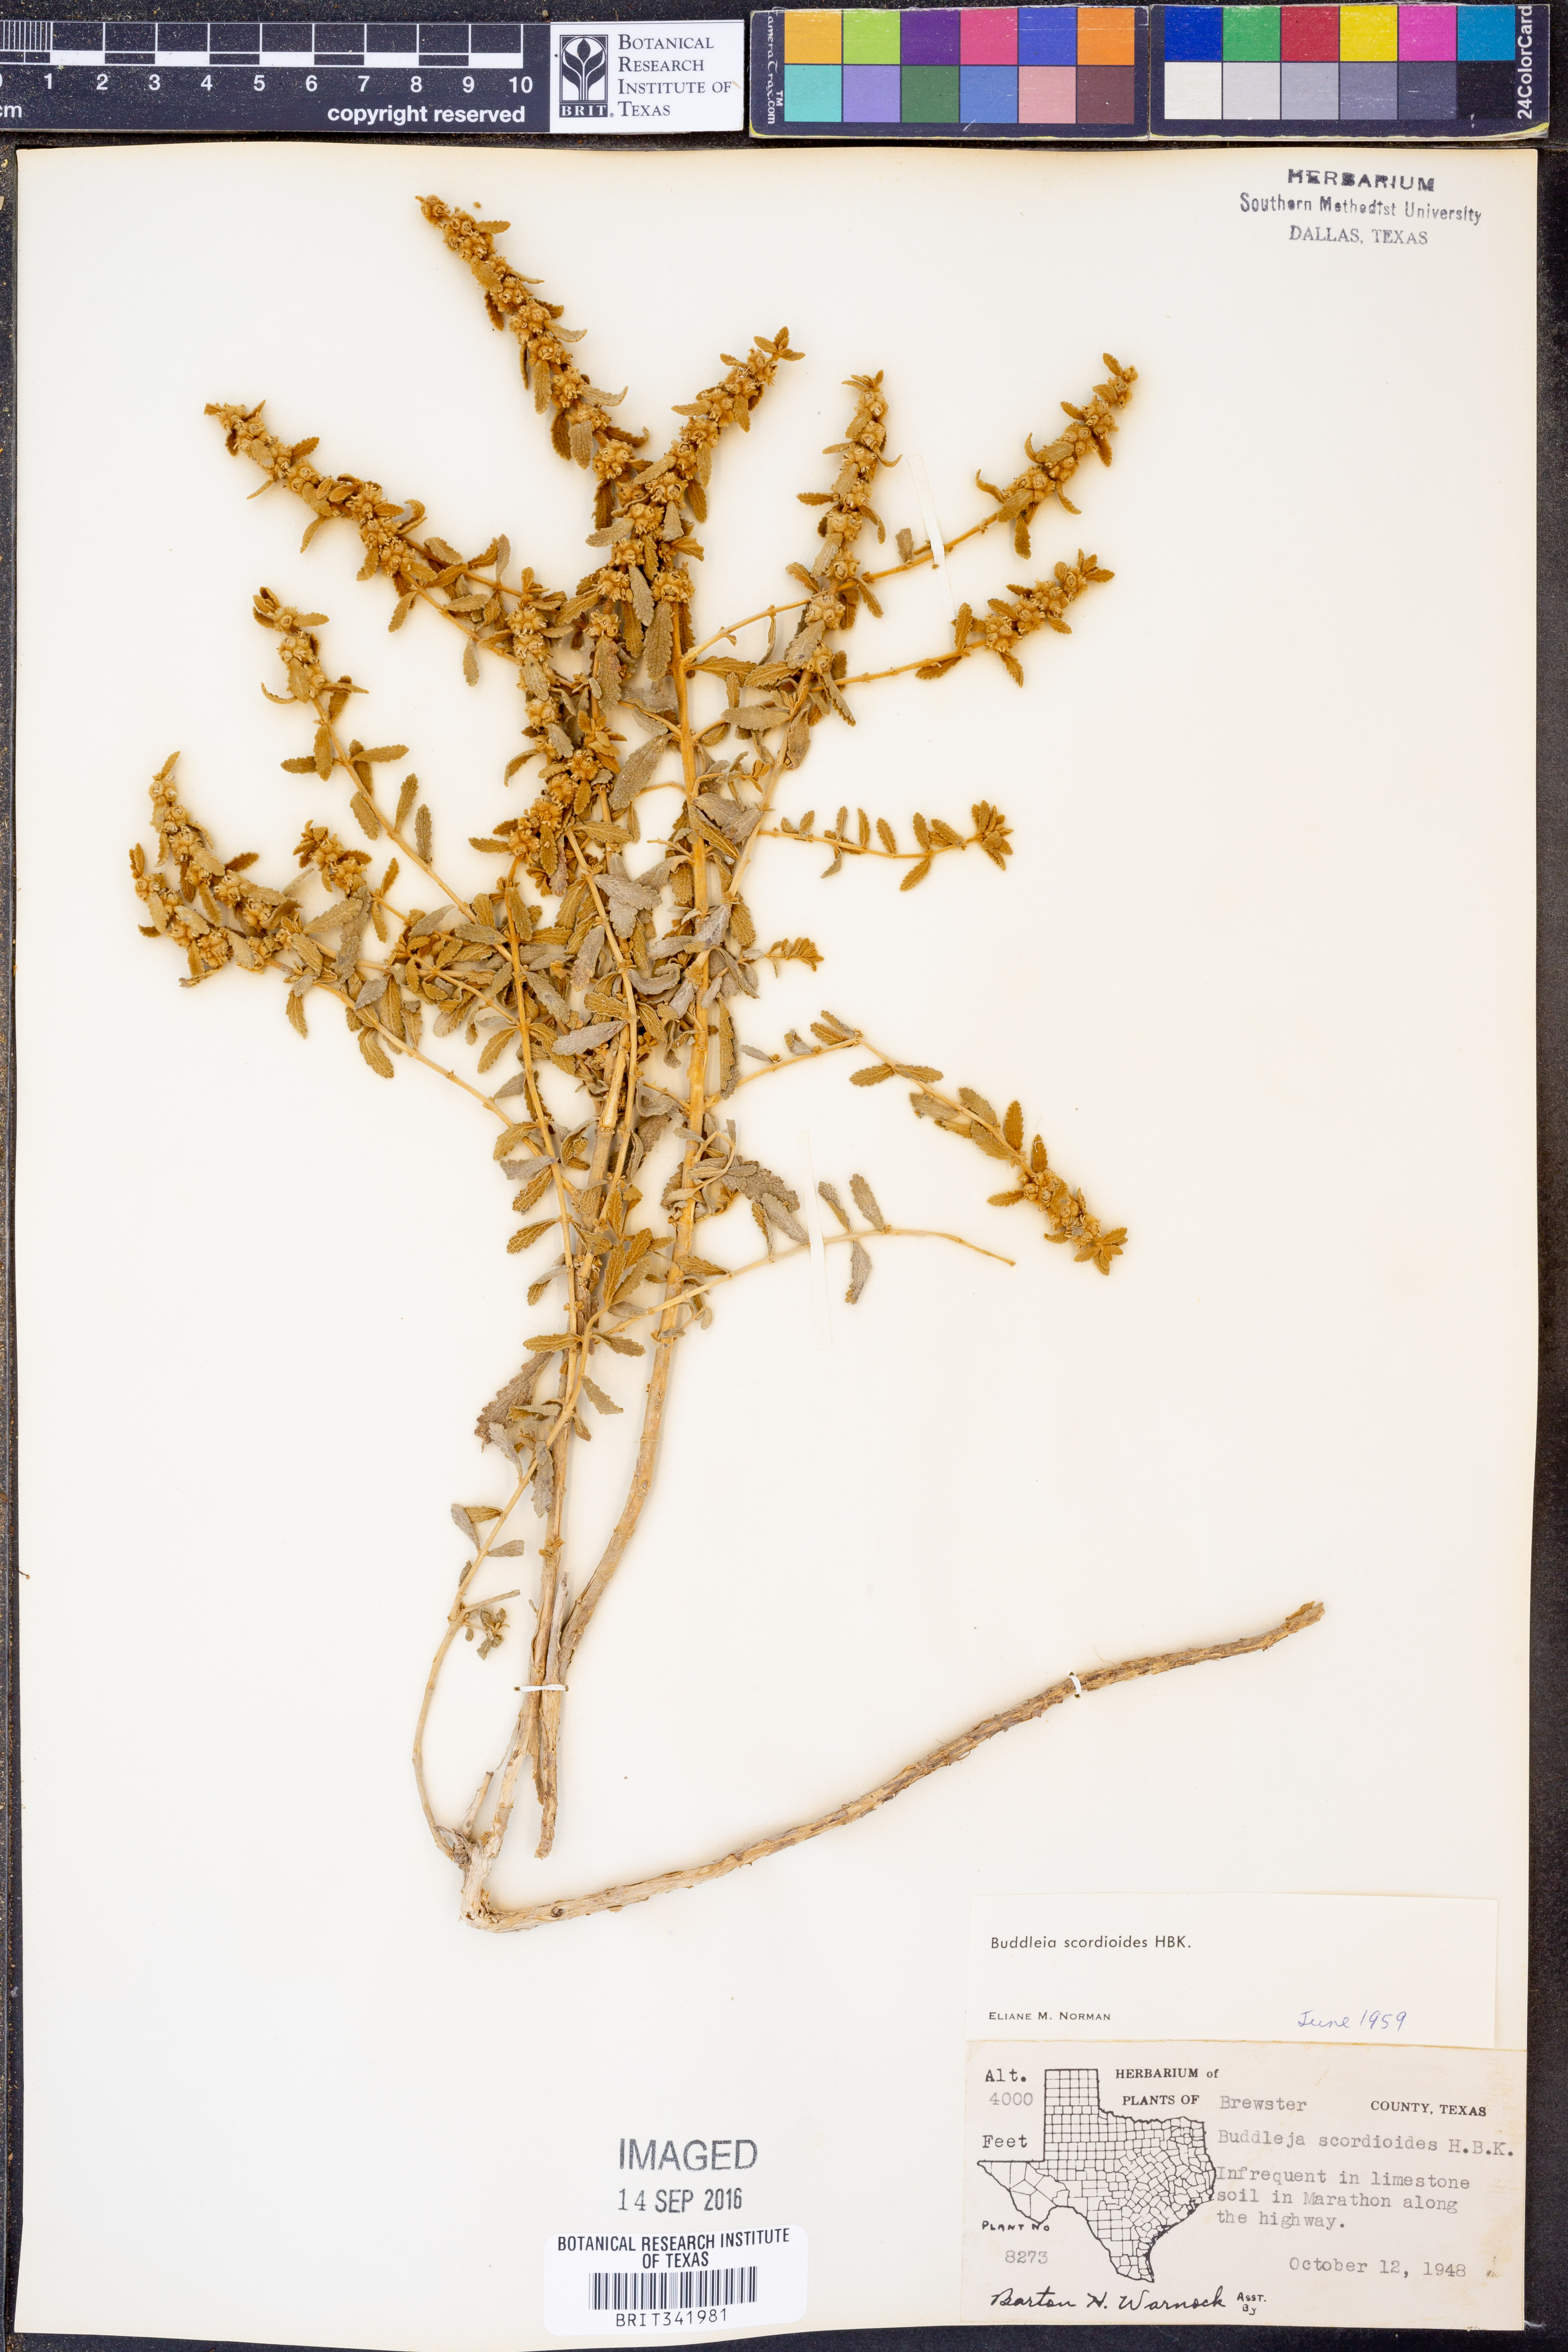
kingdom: Plantae
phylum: Tracheophyta
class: Magnoliopsida
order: Lamiales
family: Scrophulariaceae
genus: Buddleja
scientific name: Buddleja scordioides
